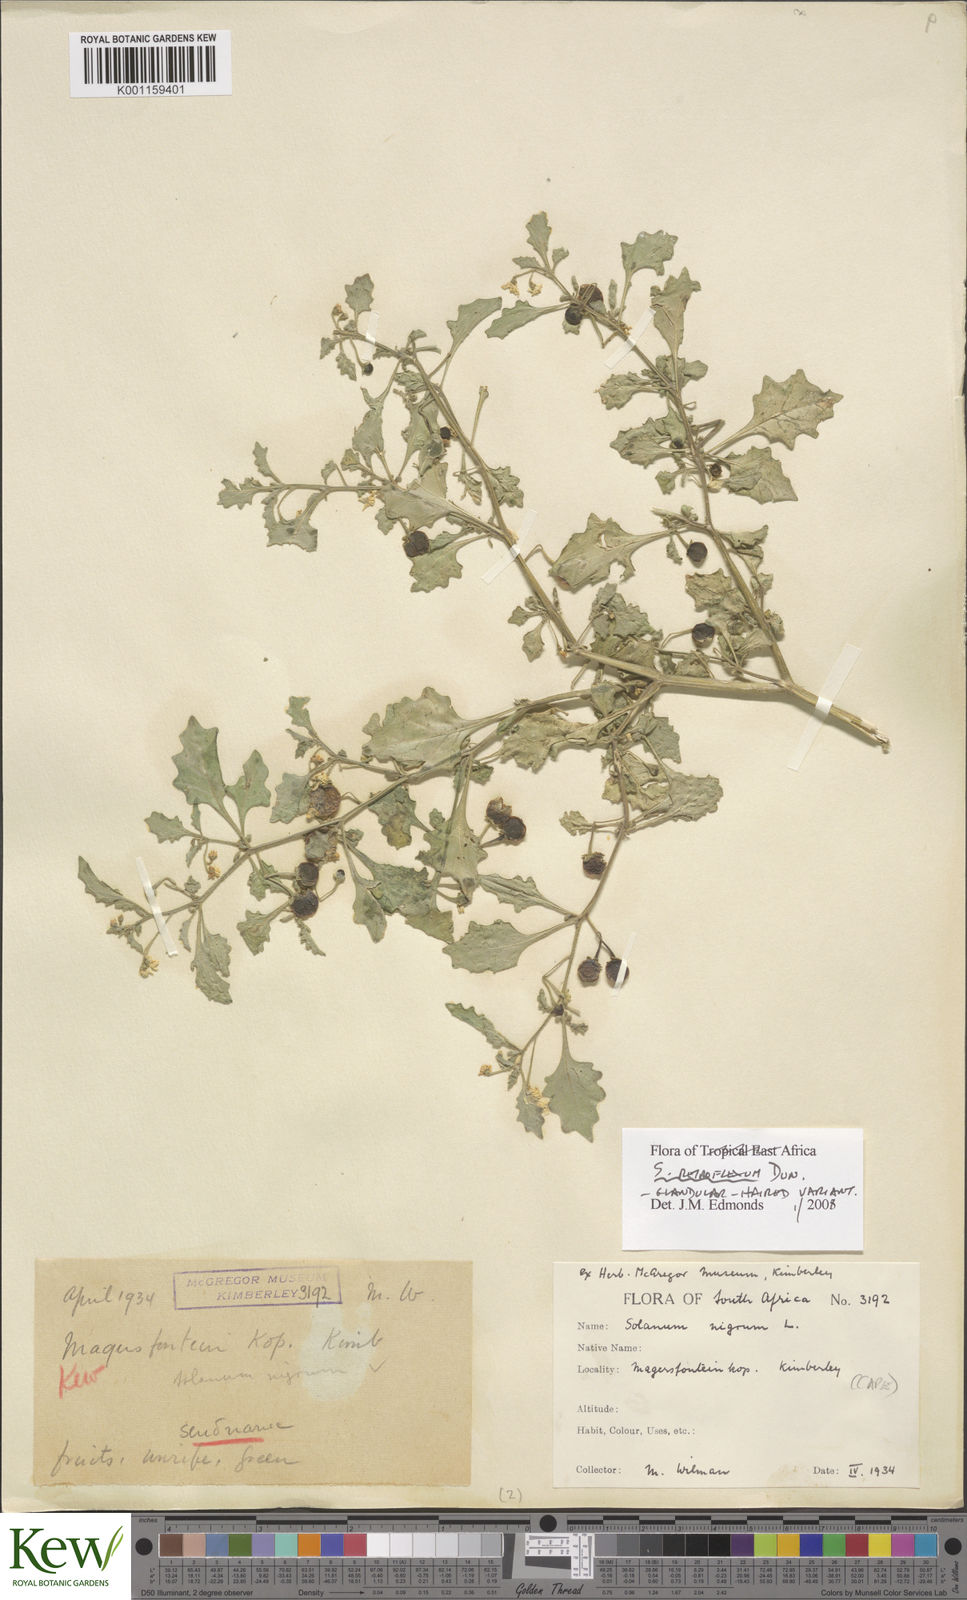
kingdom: Plantae
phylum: Tracheophyta
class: Magnoliopsida
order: Solanales
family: Solanaceae
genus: Solanum
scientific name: Solanum retroflexum
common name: Wonderberry
